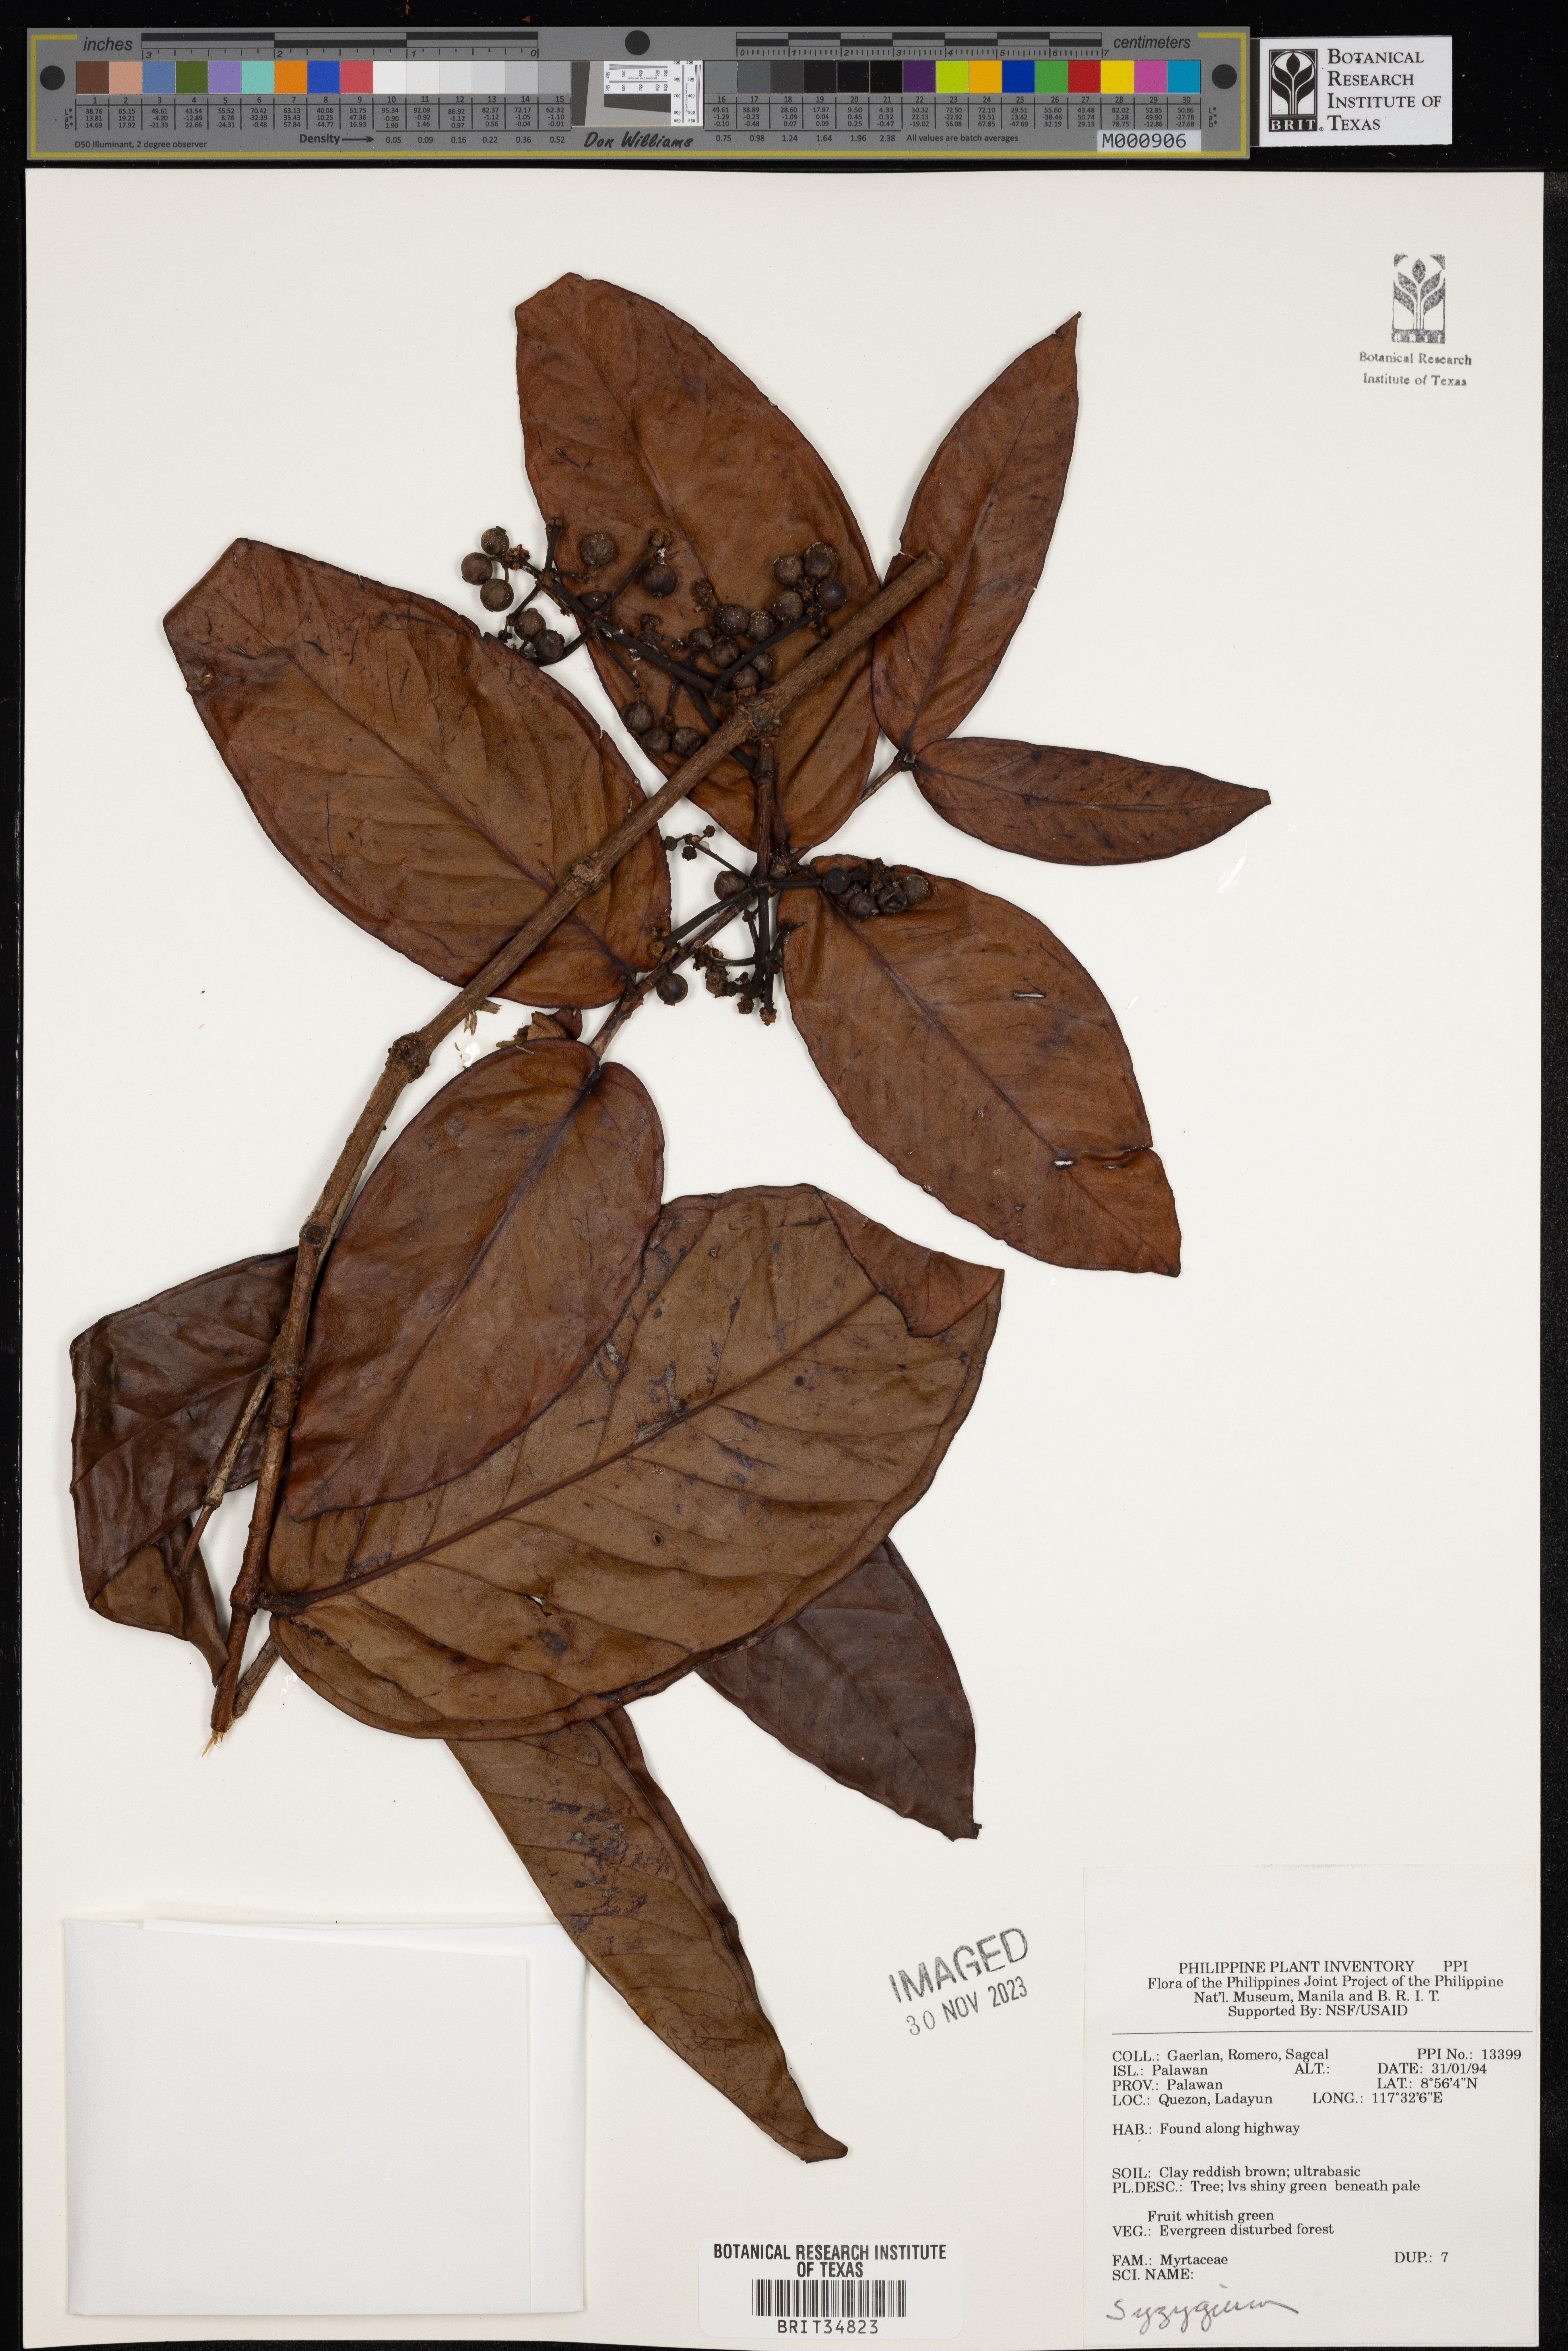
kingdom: Plantae
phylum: Tracheophyta
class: Magnoliopsida
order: Myrtales
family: Myrtaceae
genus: Syzygium
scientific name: Syzygium
